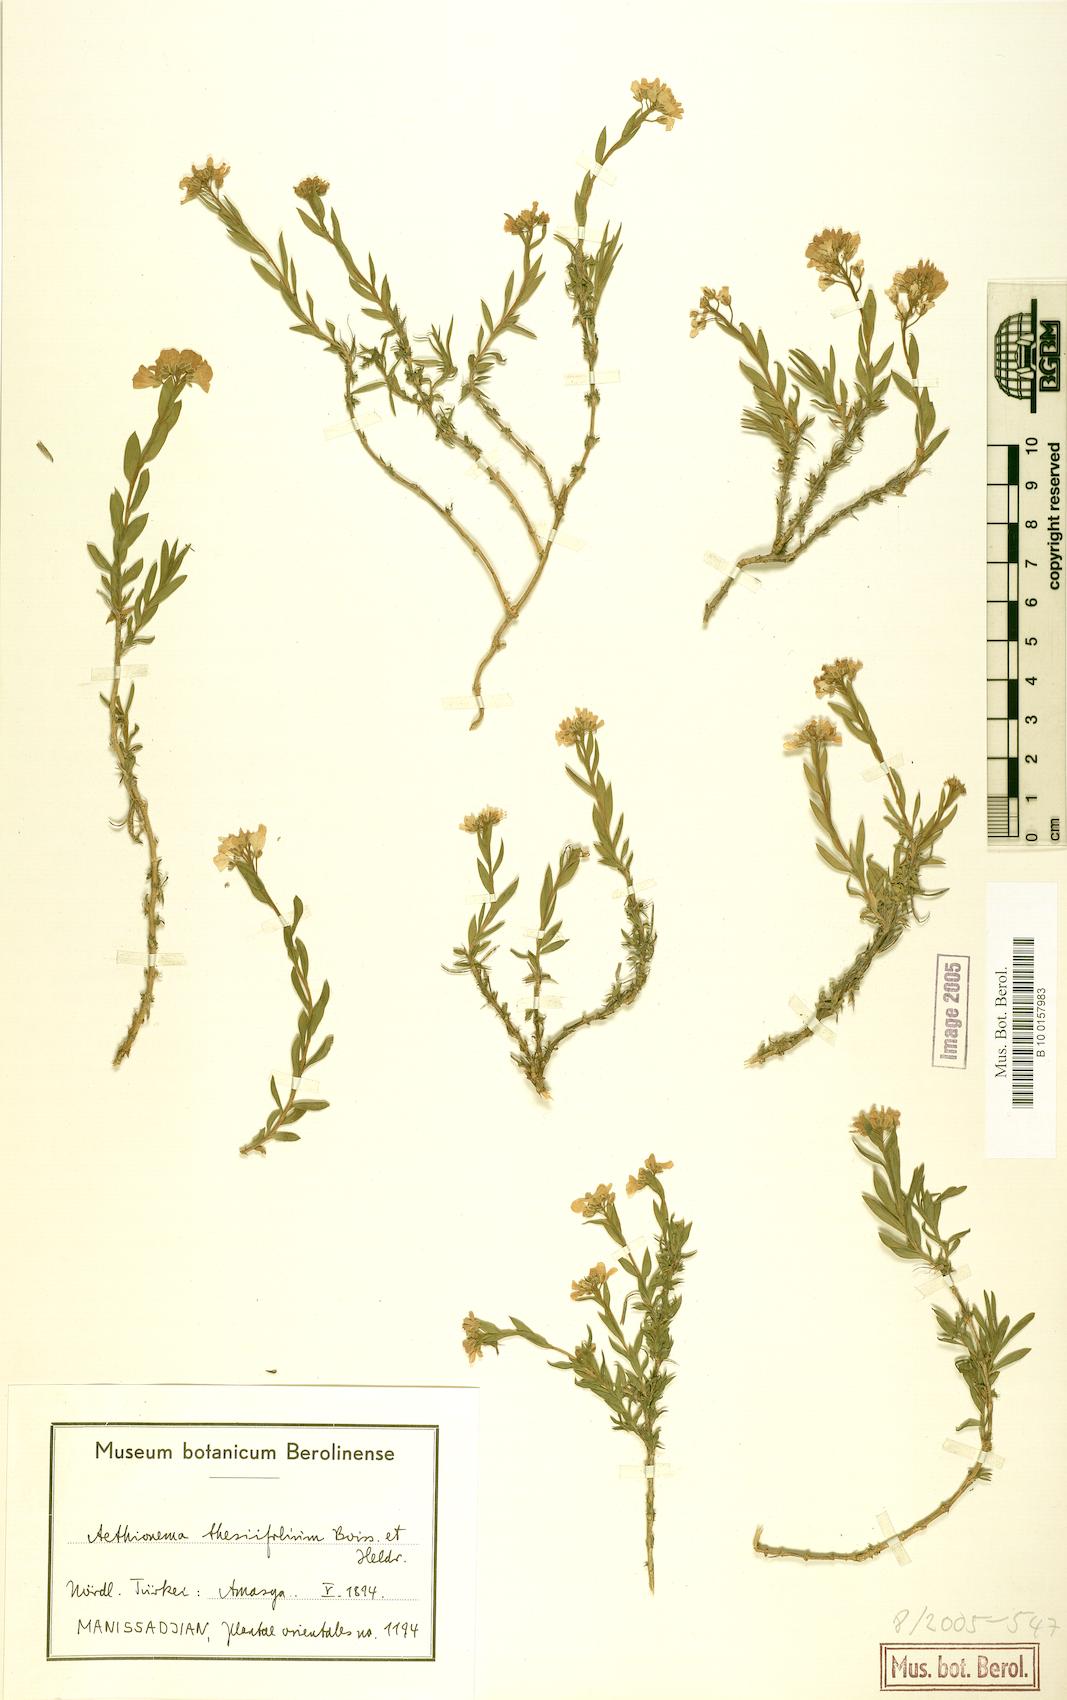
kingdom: Plantae
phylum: Tracheophyta
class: Magnoliopsida
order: Brassicales
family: Brassicaceae
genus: Aethionema
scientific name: Aethionema thesiifolium
